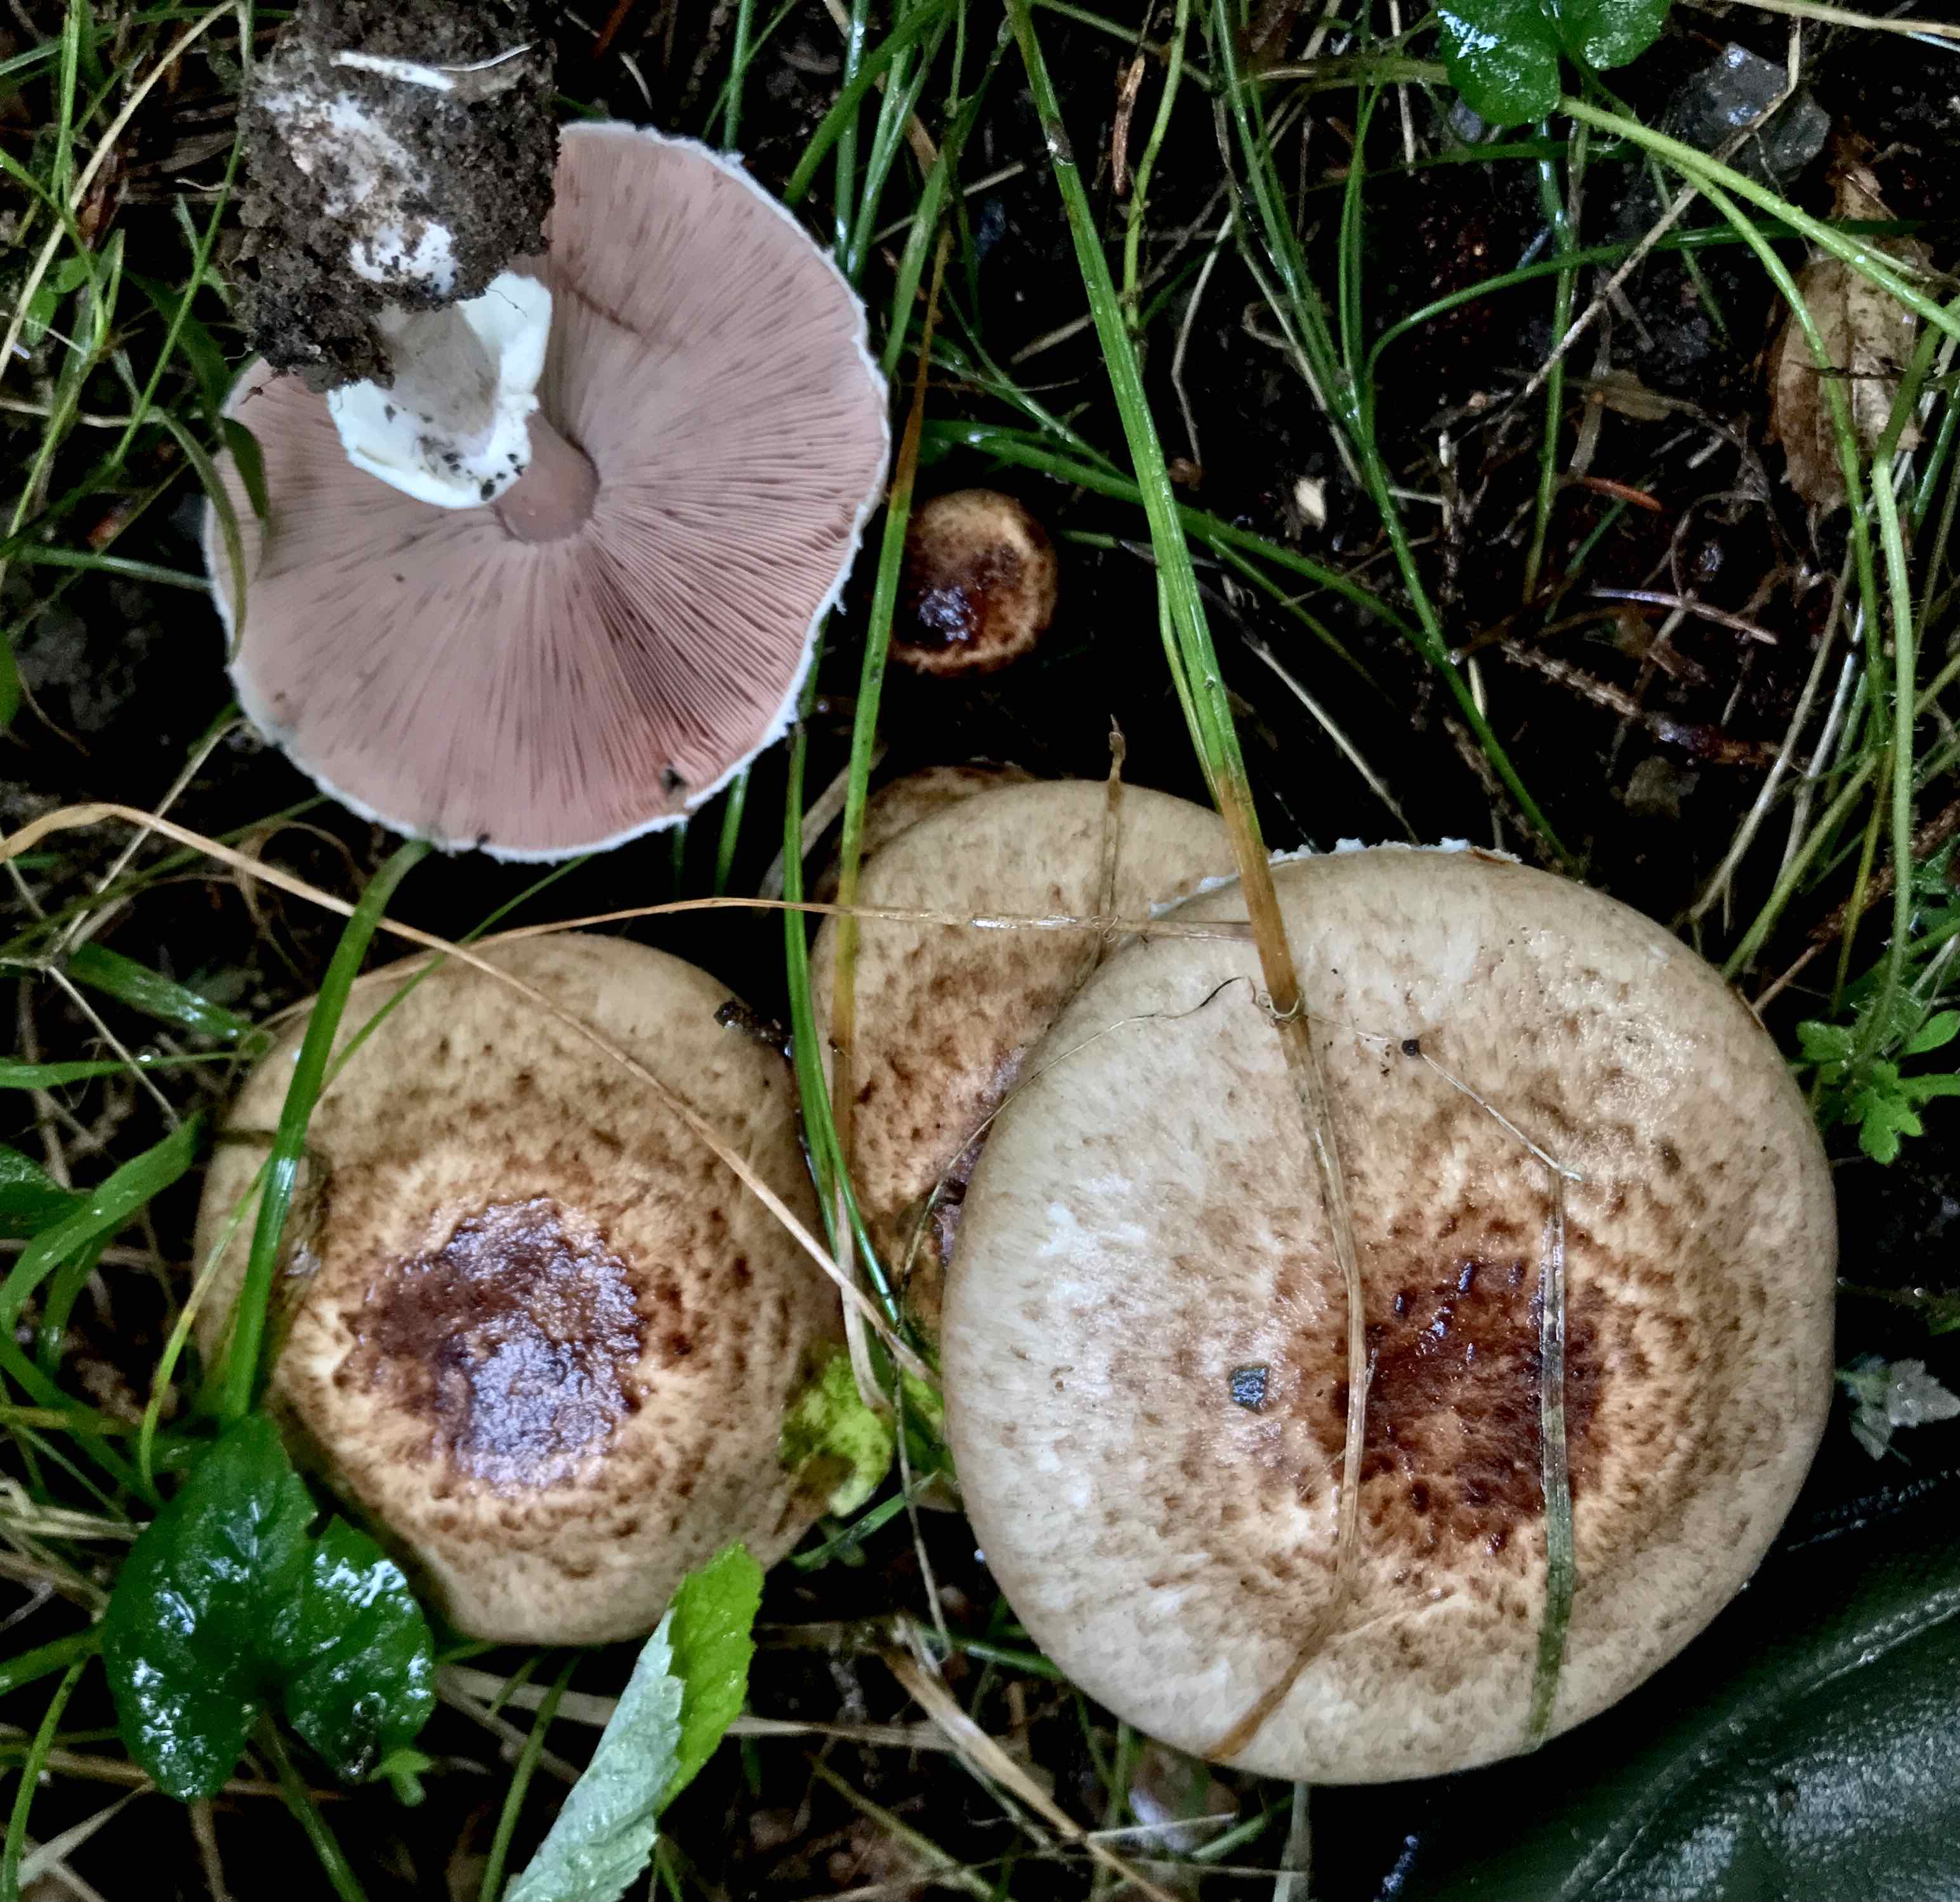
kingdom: Fungi
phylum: Basidiomycota
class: Agaricomycetes
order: Agaricales
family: Agaricaceae
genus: Agaricus
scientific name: Agaricus impudicus
